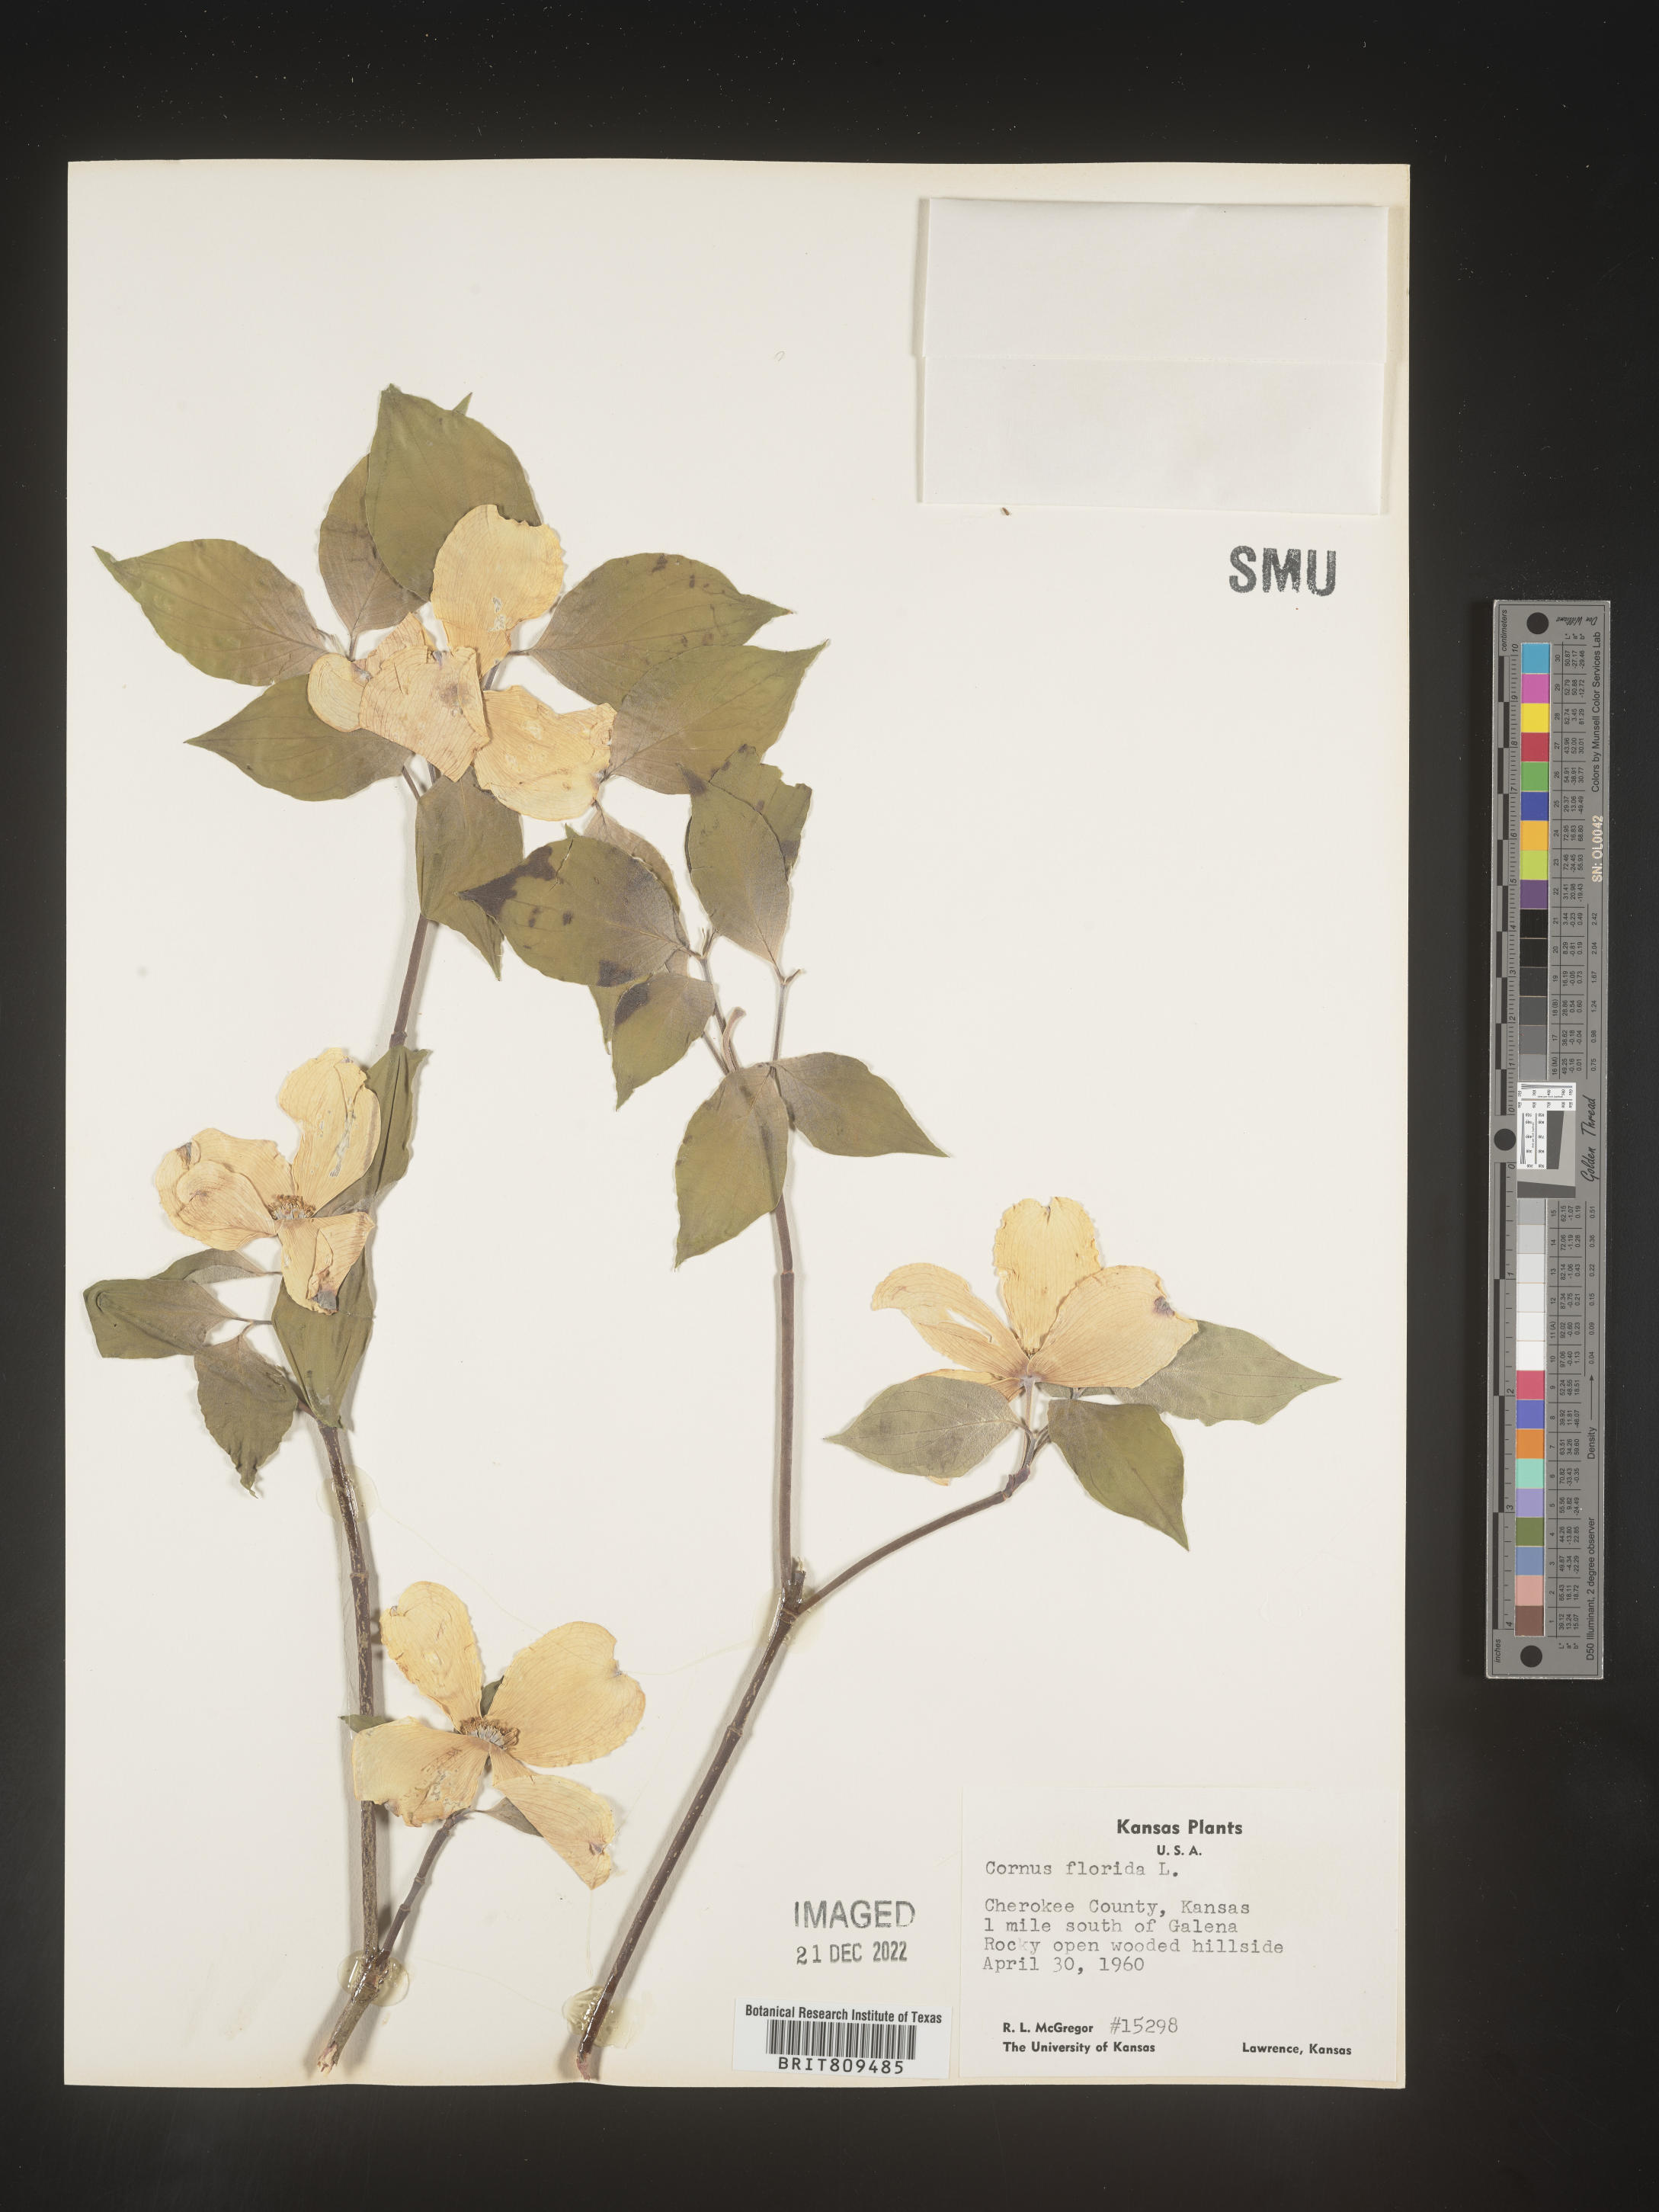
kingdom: Plantae
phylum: Tracheophyta
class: Magnoliopsida
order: Cornales
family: Cornaceae
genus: Cornus
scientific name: Cornus florida
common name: Flowering dogwood
